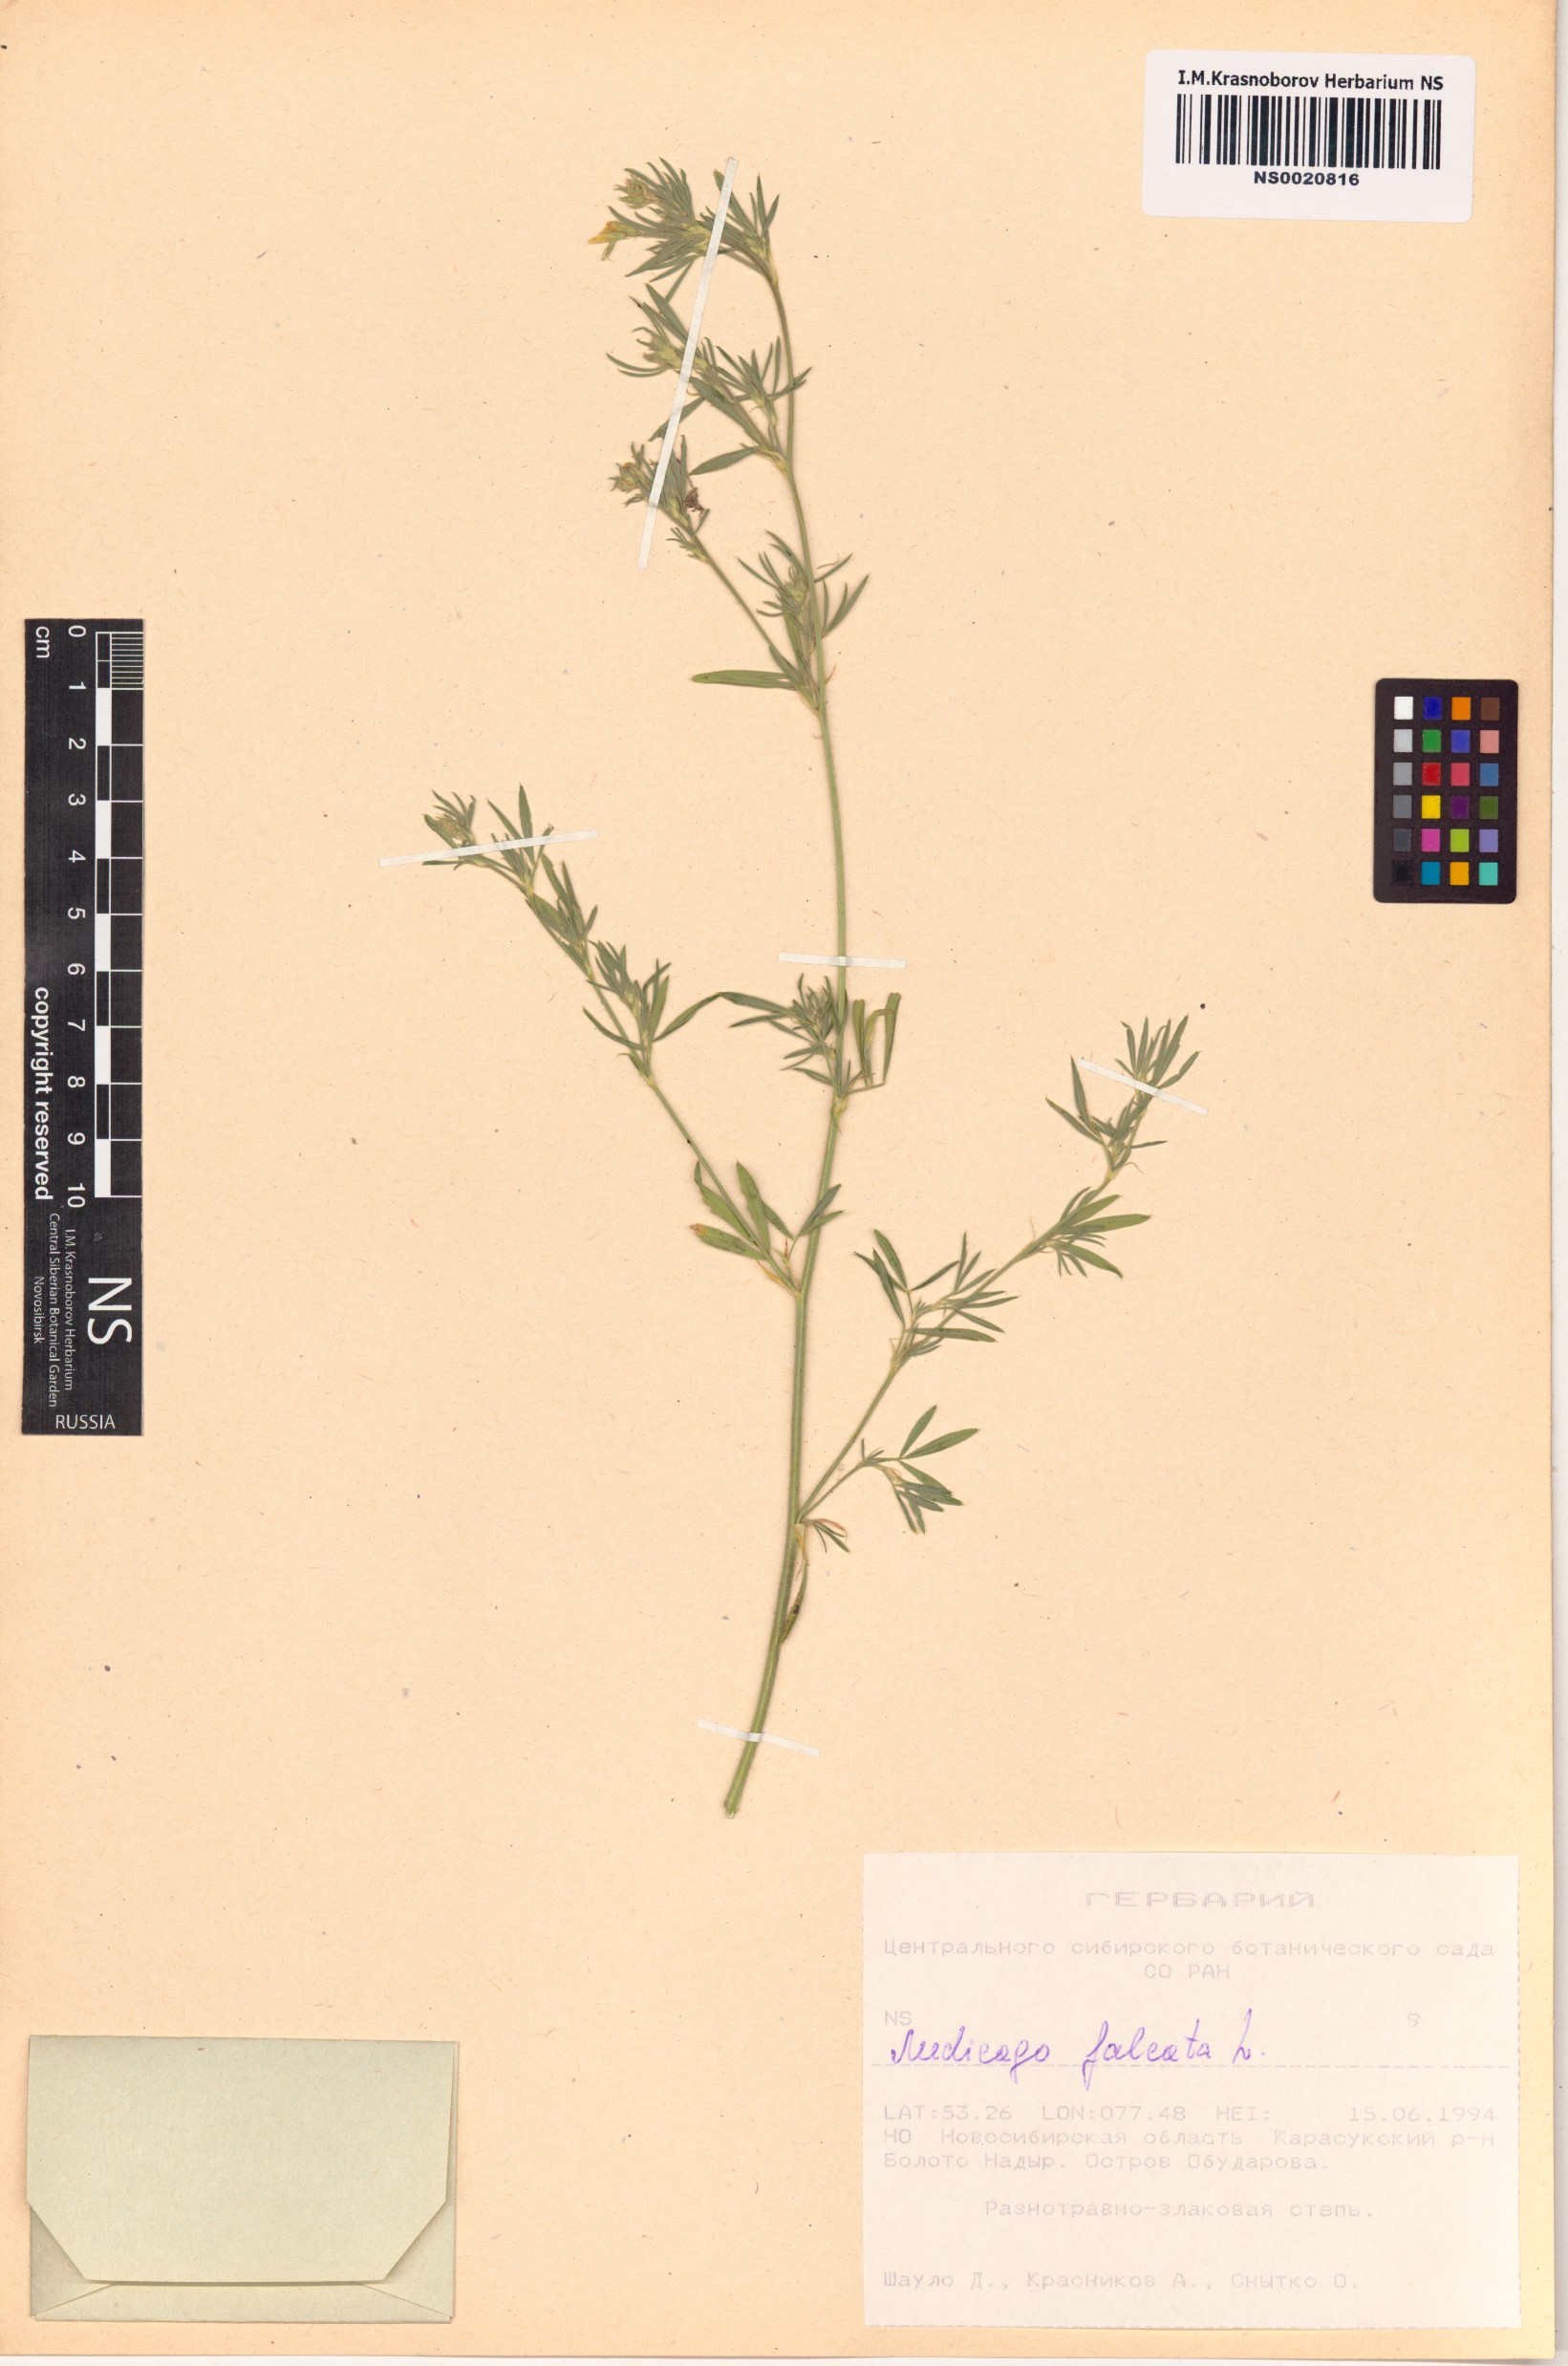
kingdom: Plantae
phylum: Tracheophyta
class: Magnoliopsida
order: Fabales
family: Fabaceae
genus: Medicago
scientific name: Medicago falcata
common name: Sickle medick
